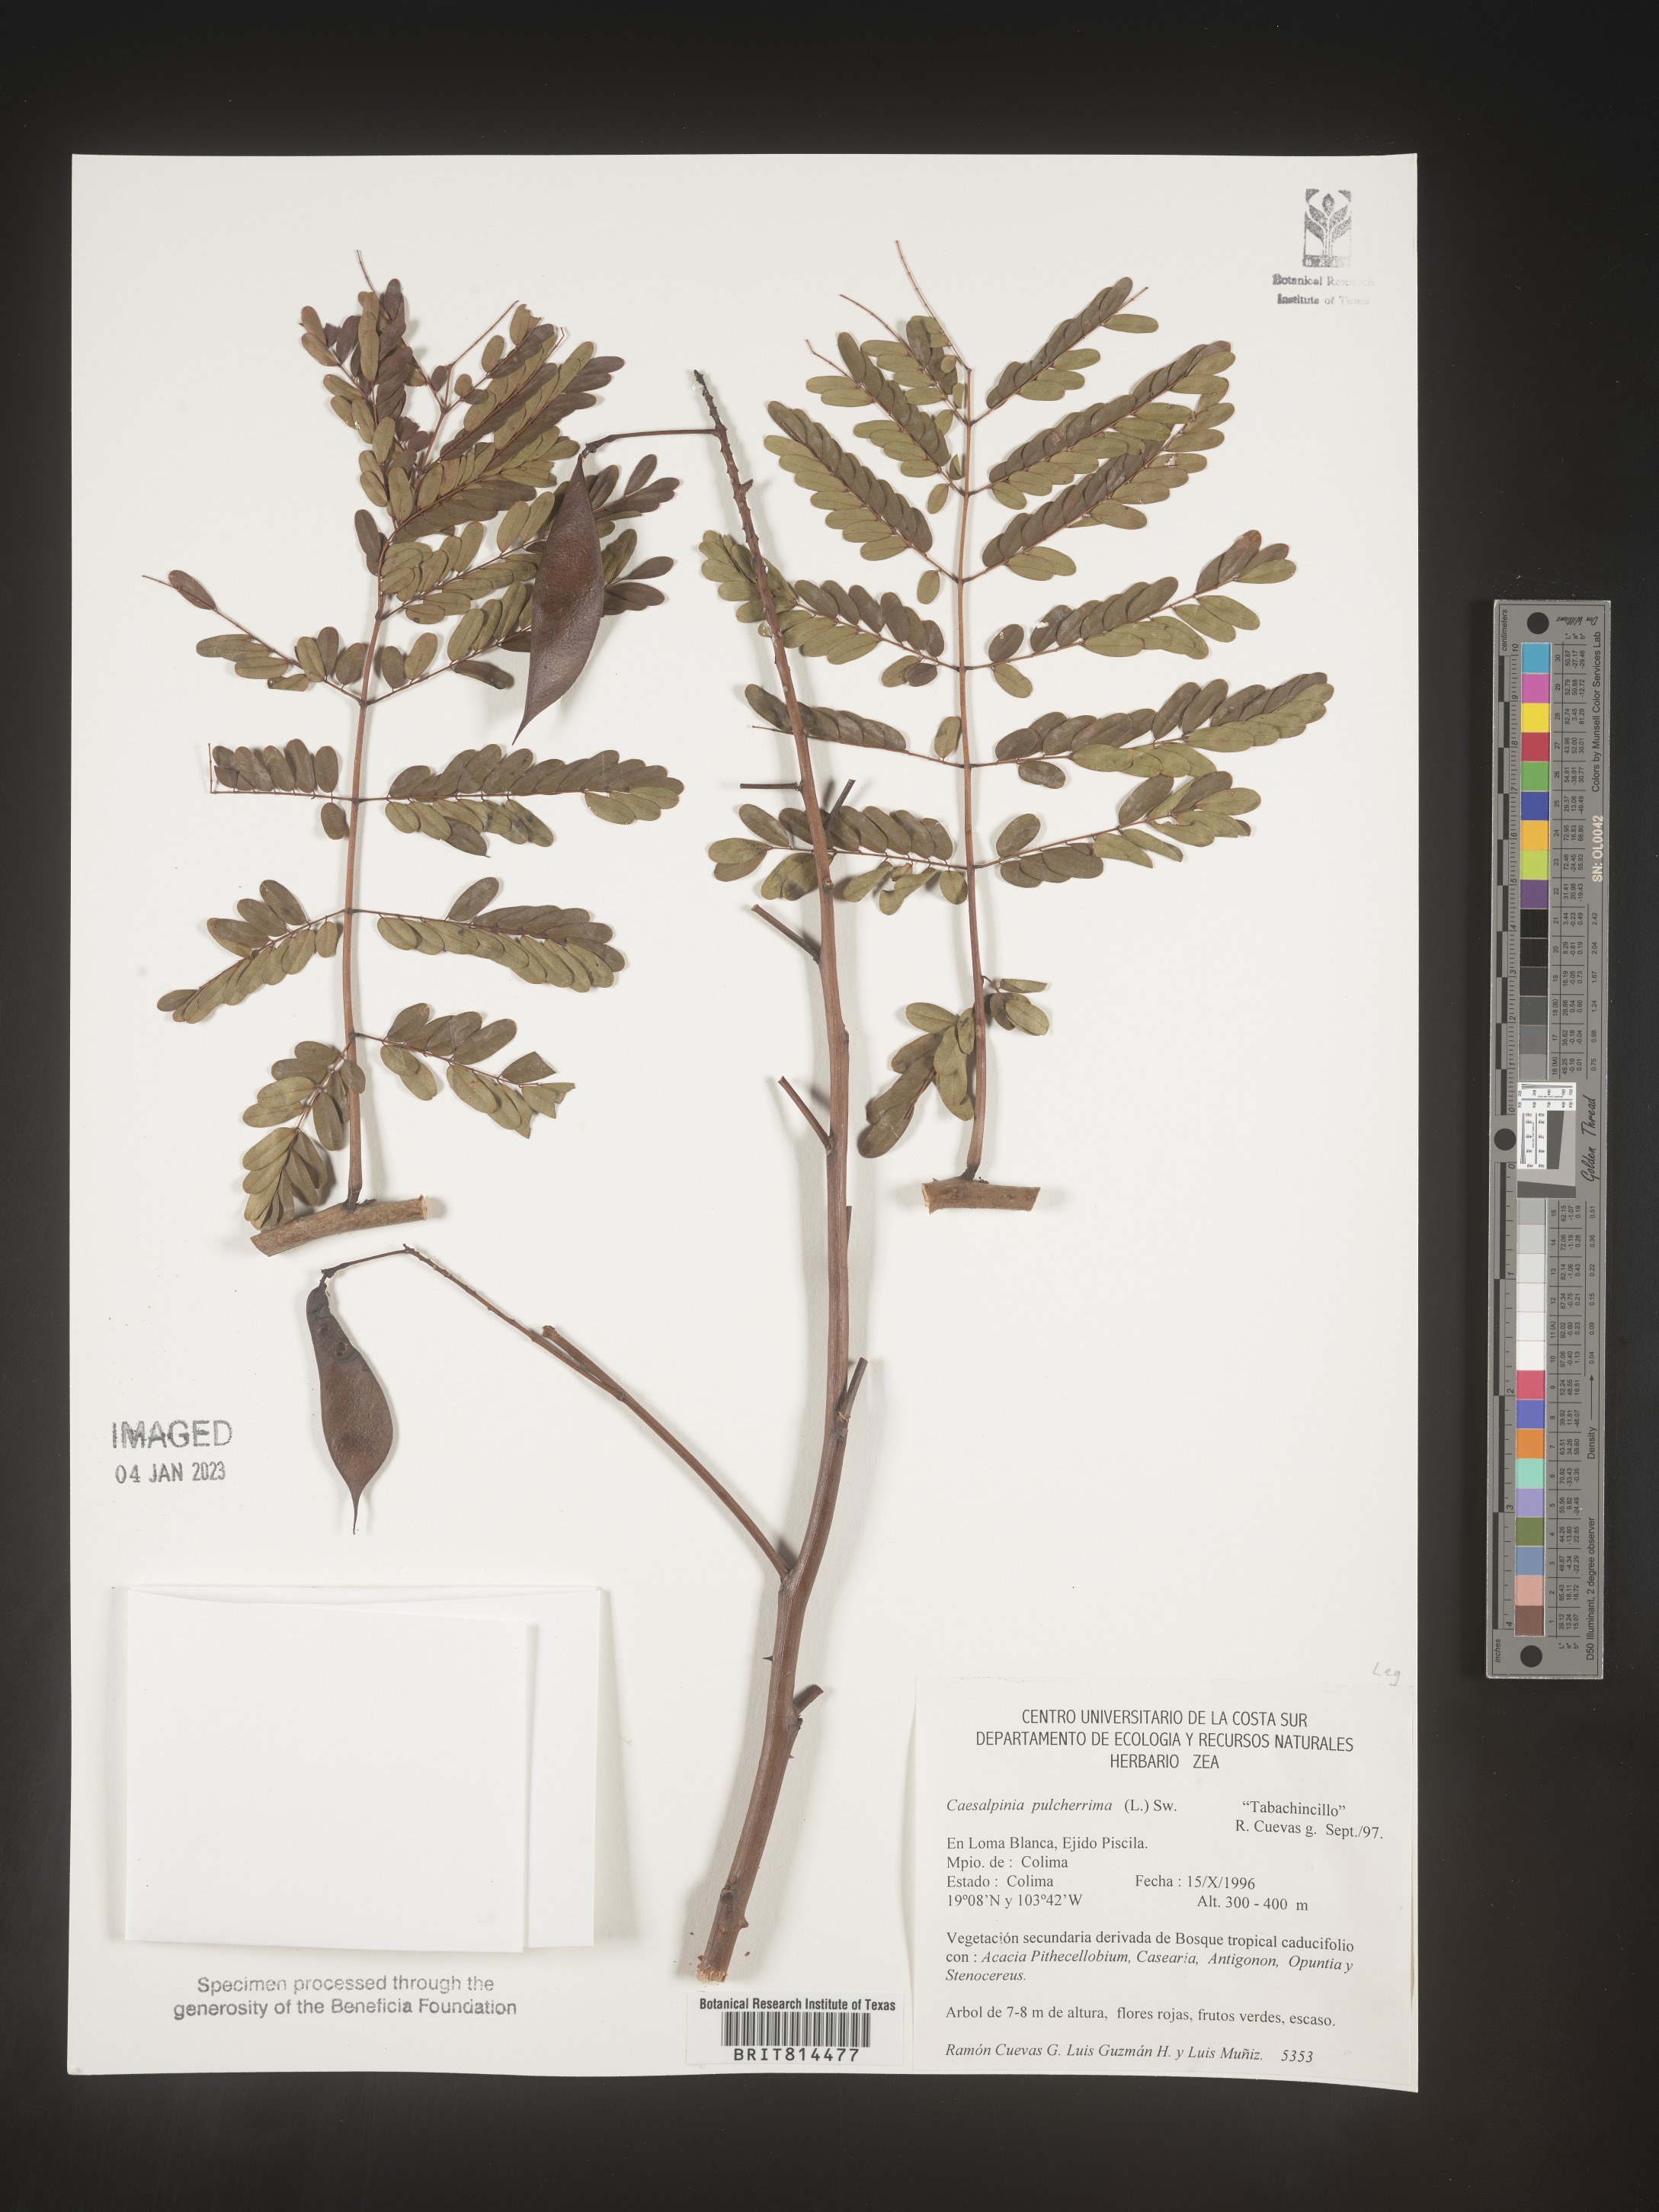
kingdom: Plantae
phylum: Tracheophyta
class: Magnoliopsida
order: Fabales
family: Fabaceae
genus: Caesalpinia
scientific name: Caesalpinia
